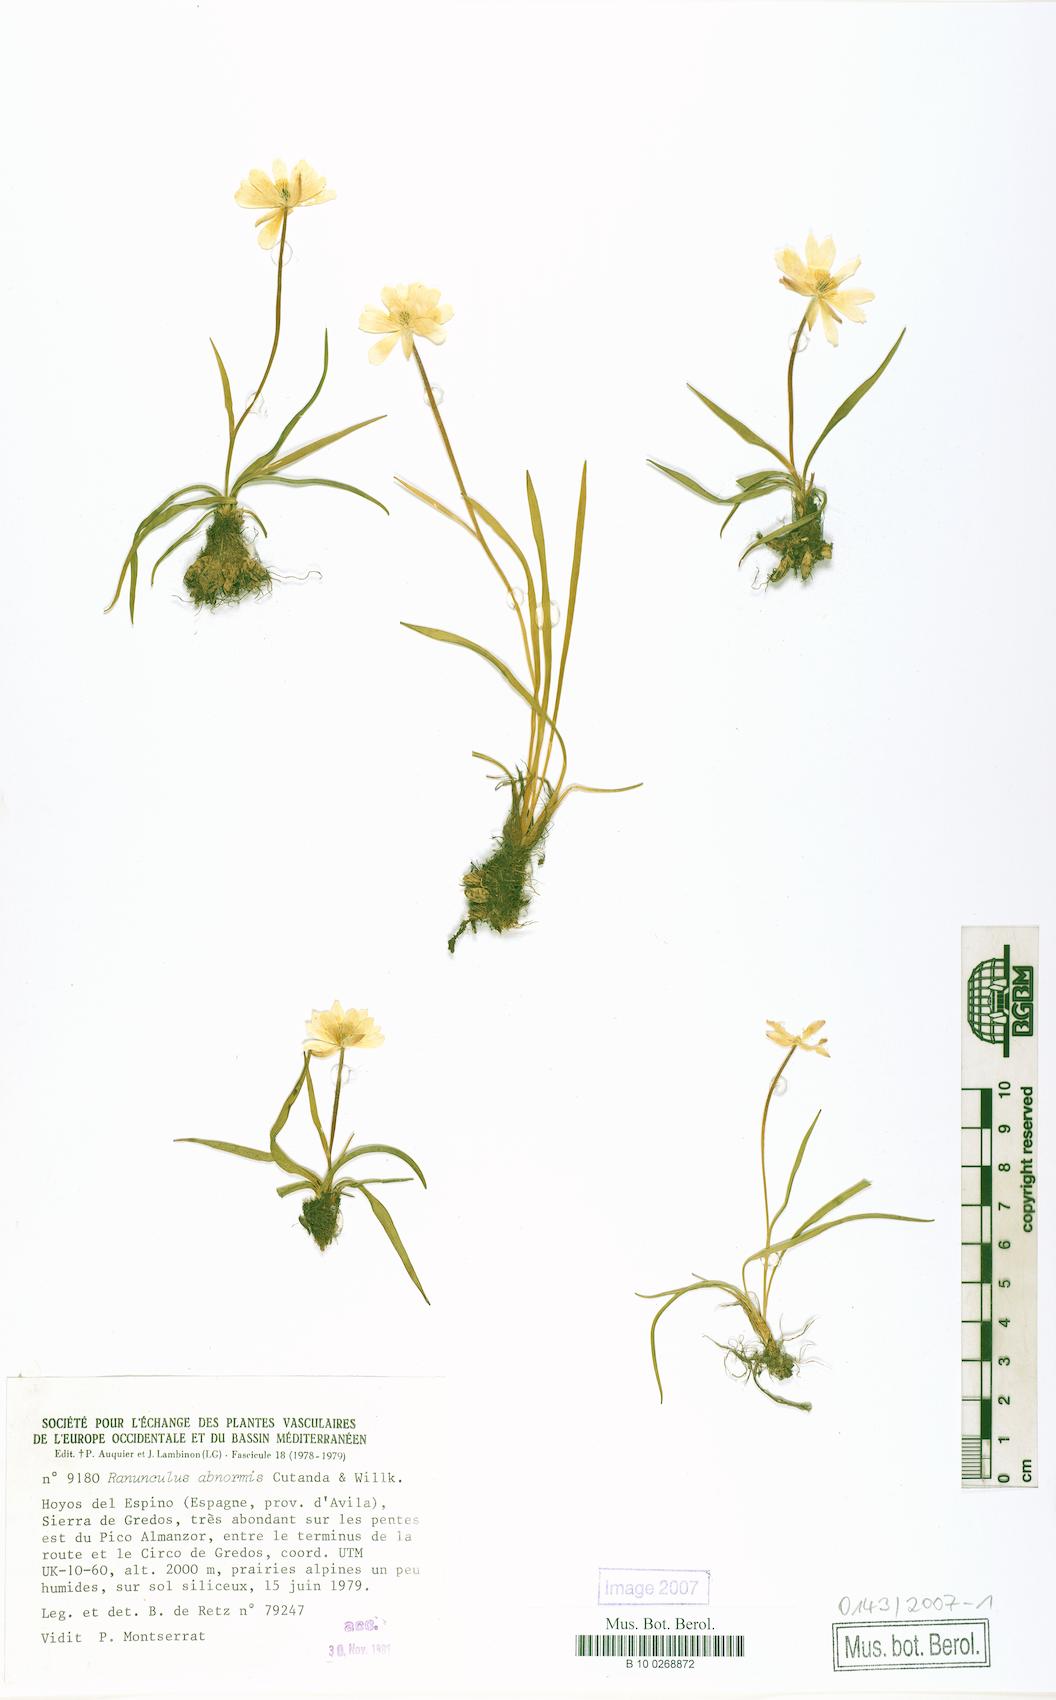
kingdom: Plantae
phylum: Tracheophyta
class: Magnoliopsida
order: Ranunculales
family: Ranunculaceae
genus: Ranunculus
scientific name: Ranunculus abnormis
